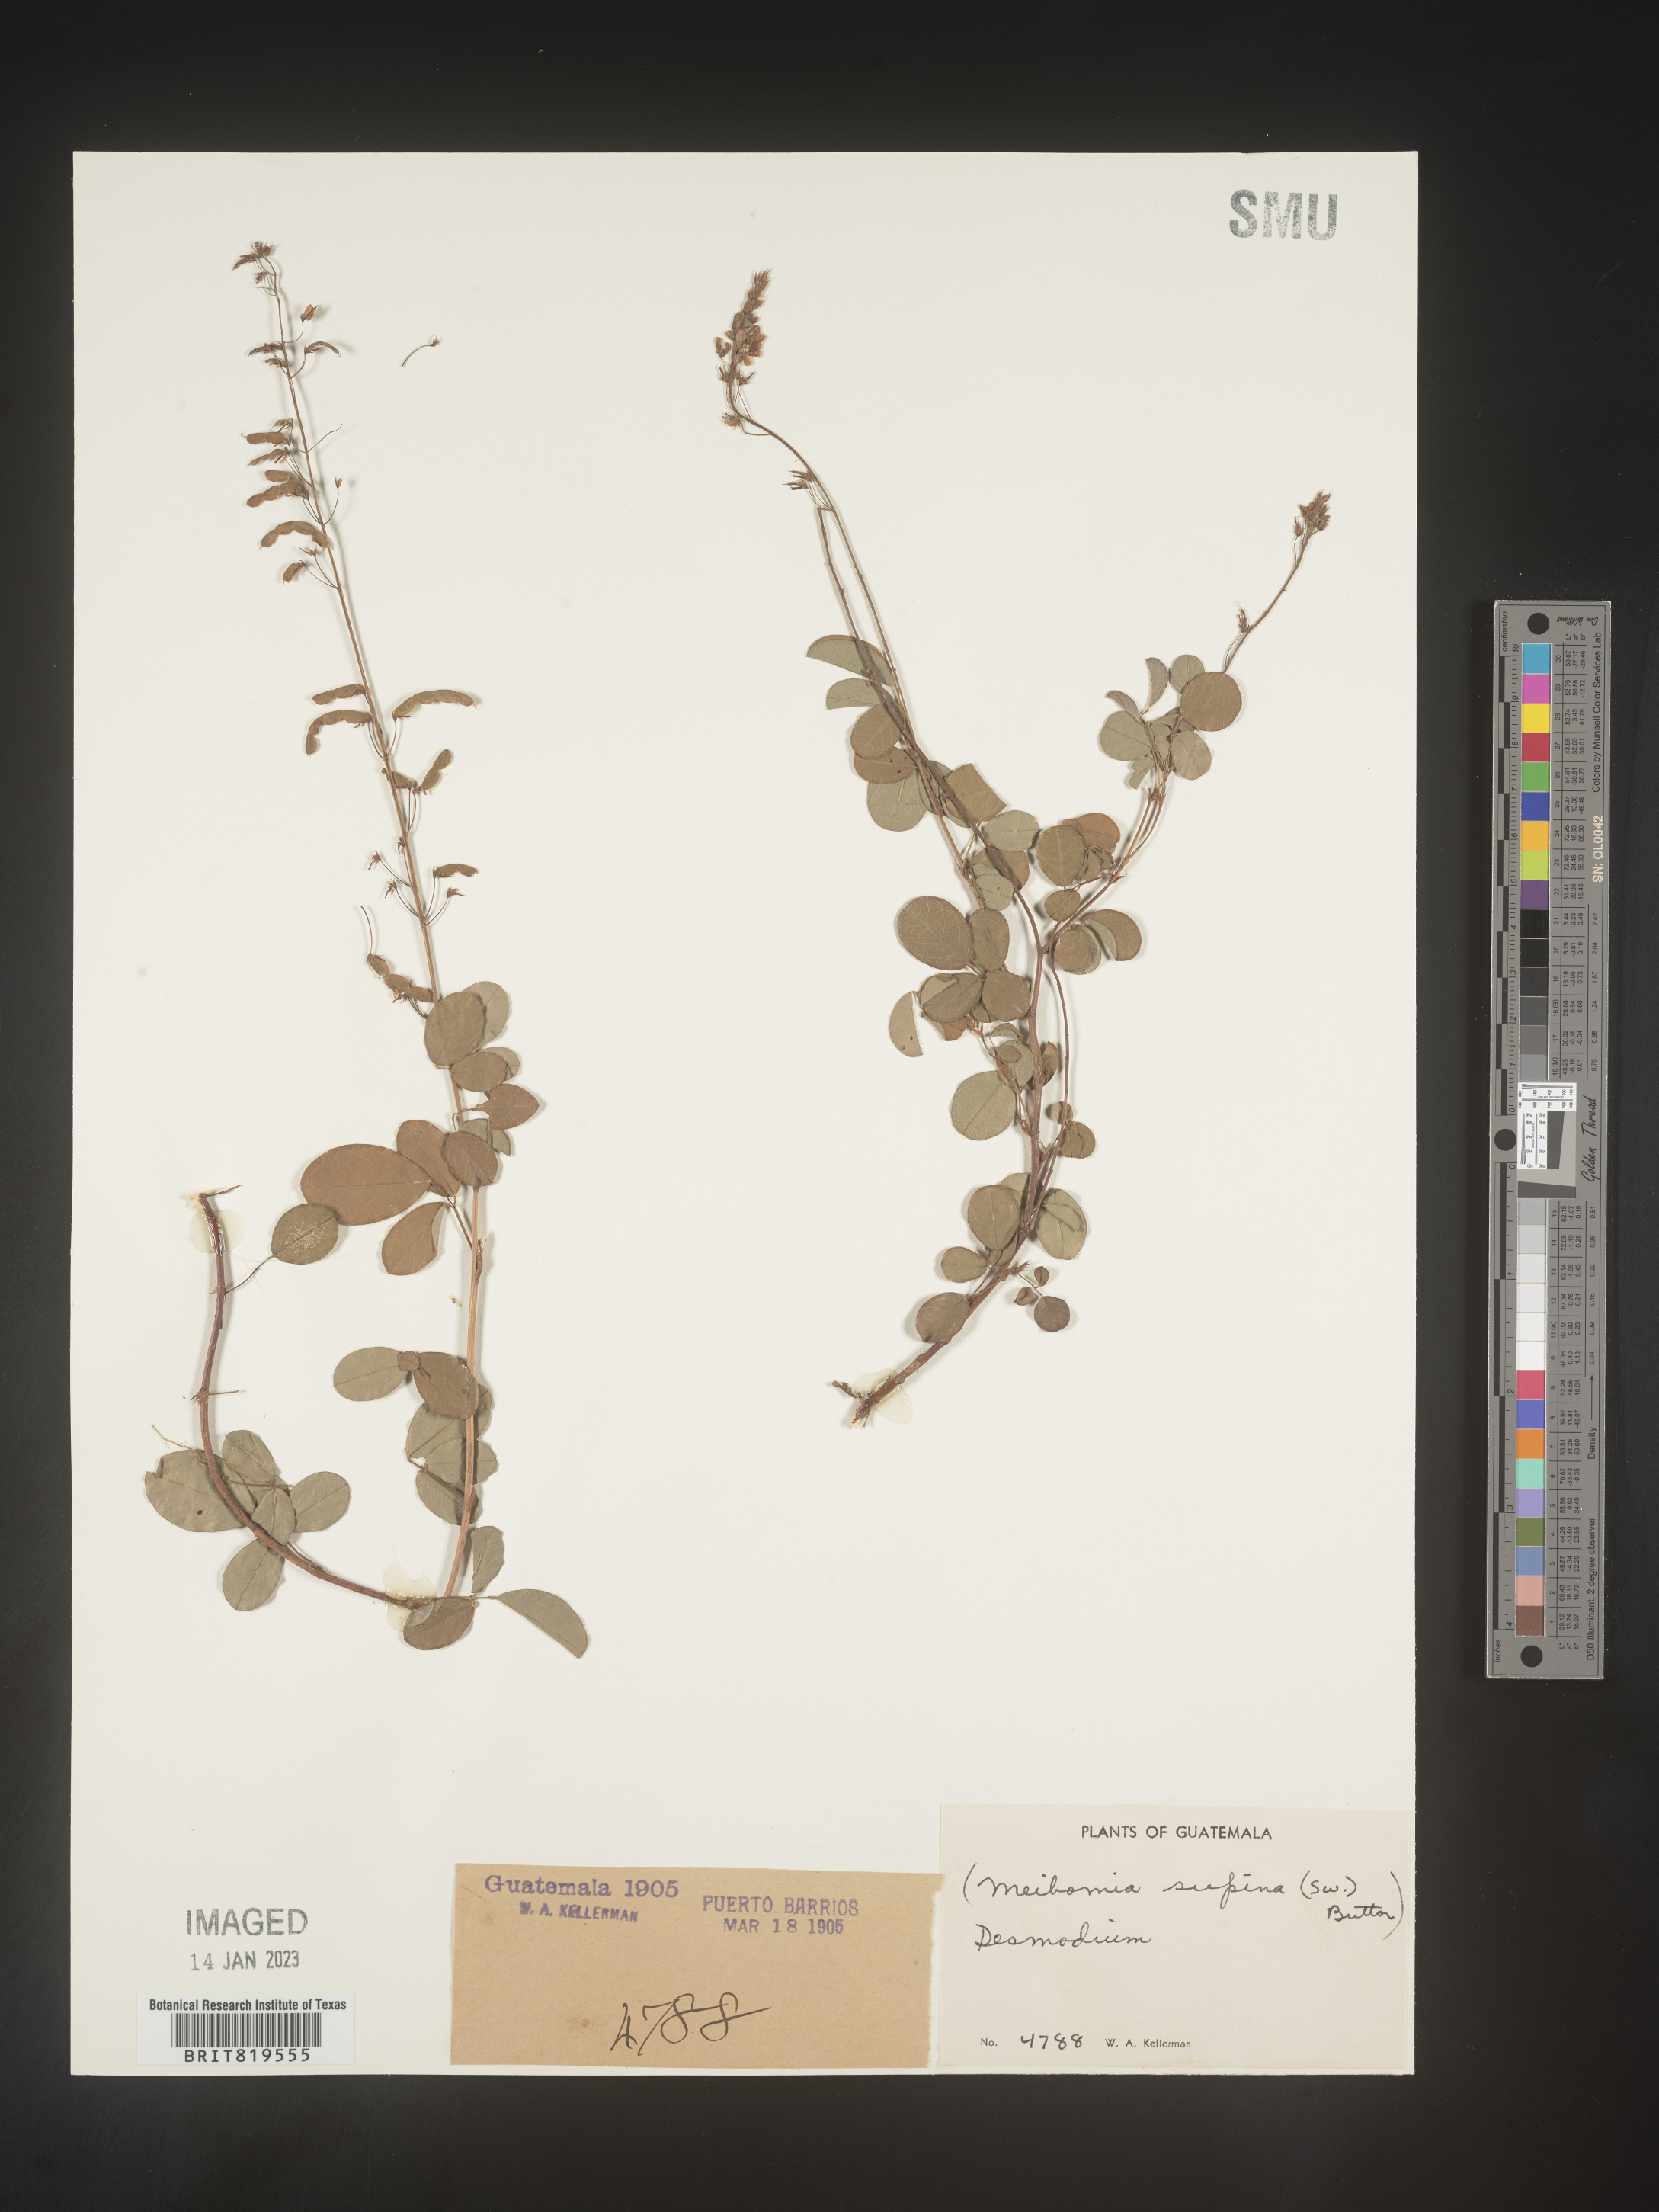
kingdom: Plantae
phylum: Tracheophyta
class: Magnoliopsida
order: Fabales
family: Fabaceae
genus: Desmodium
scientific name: Desmodium
